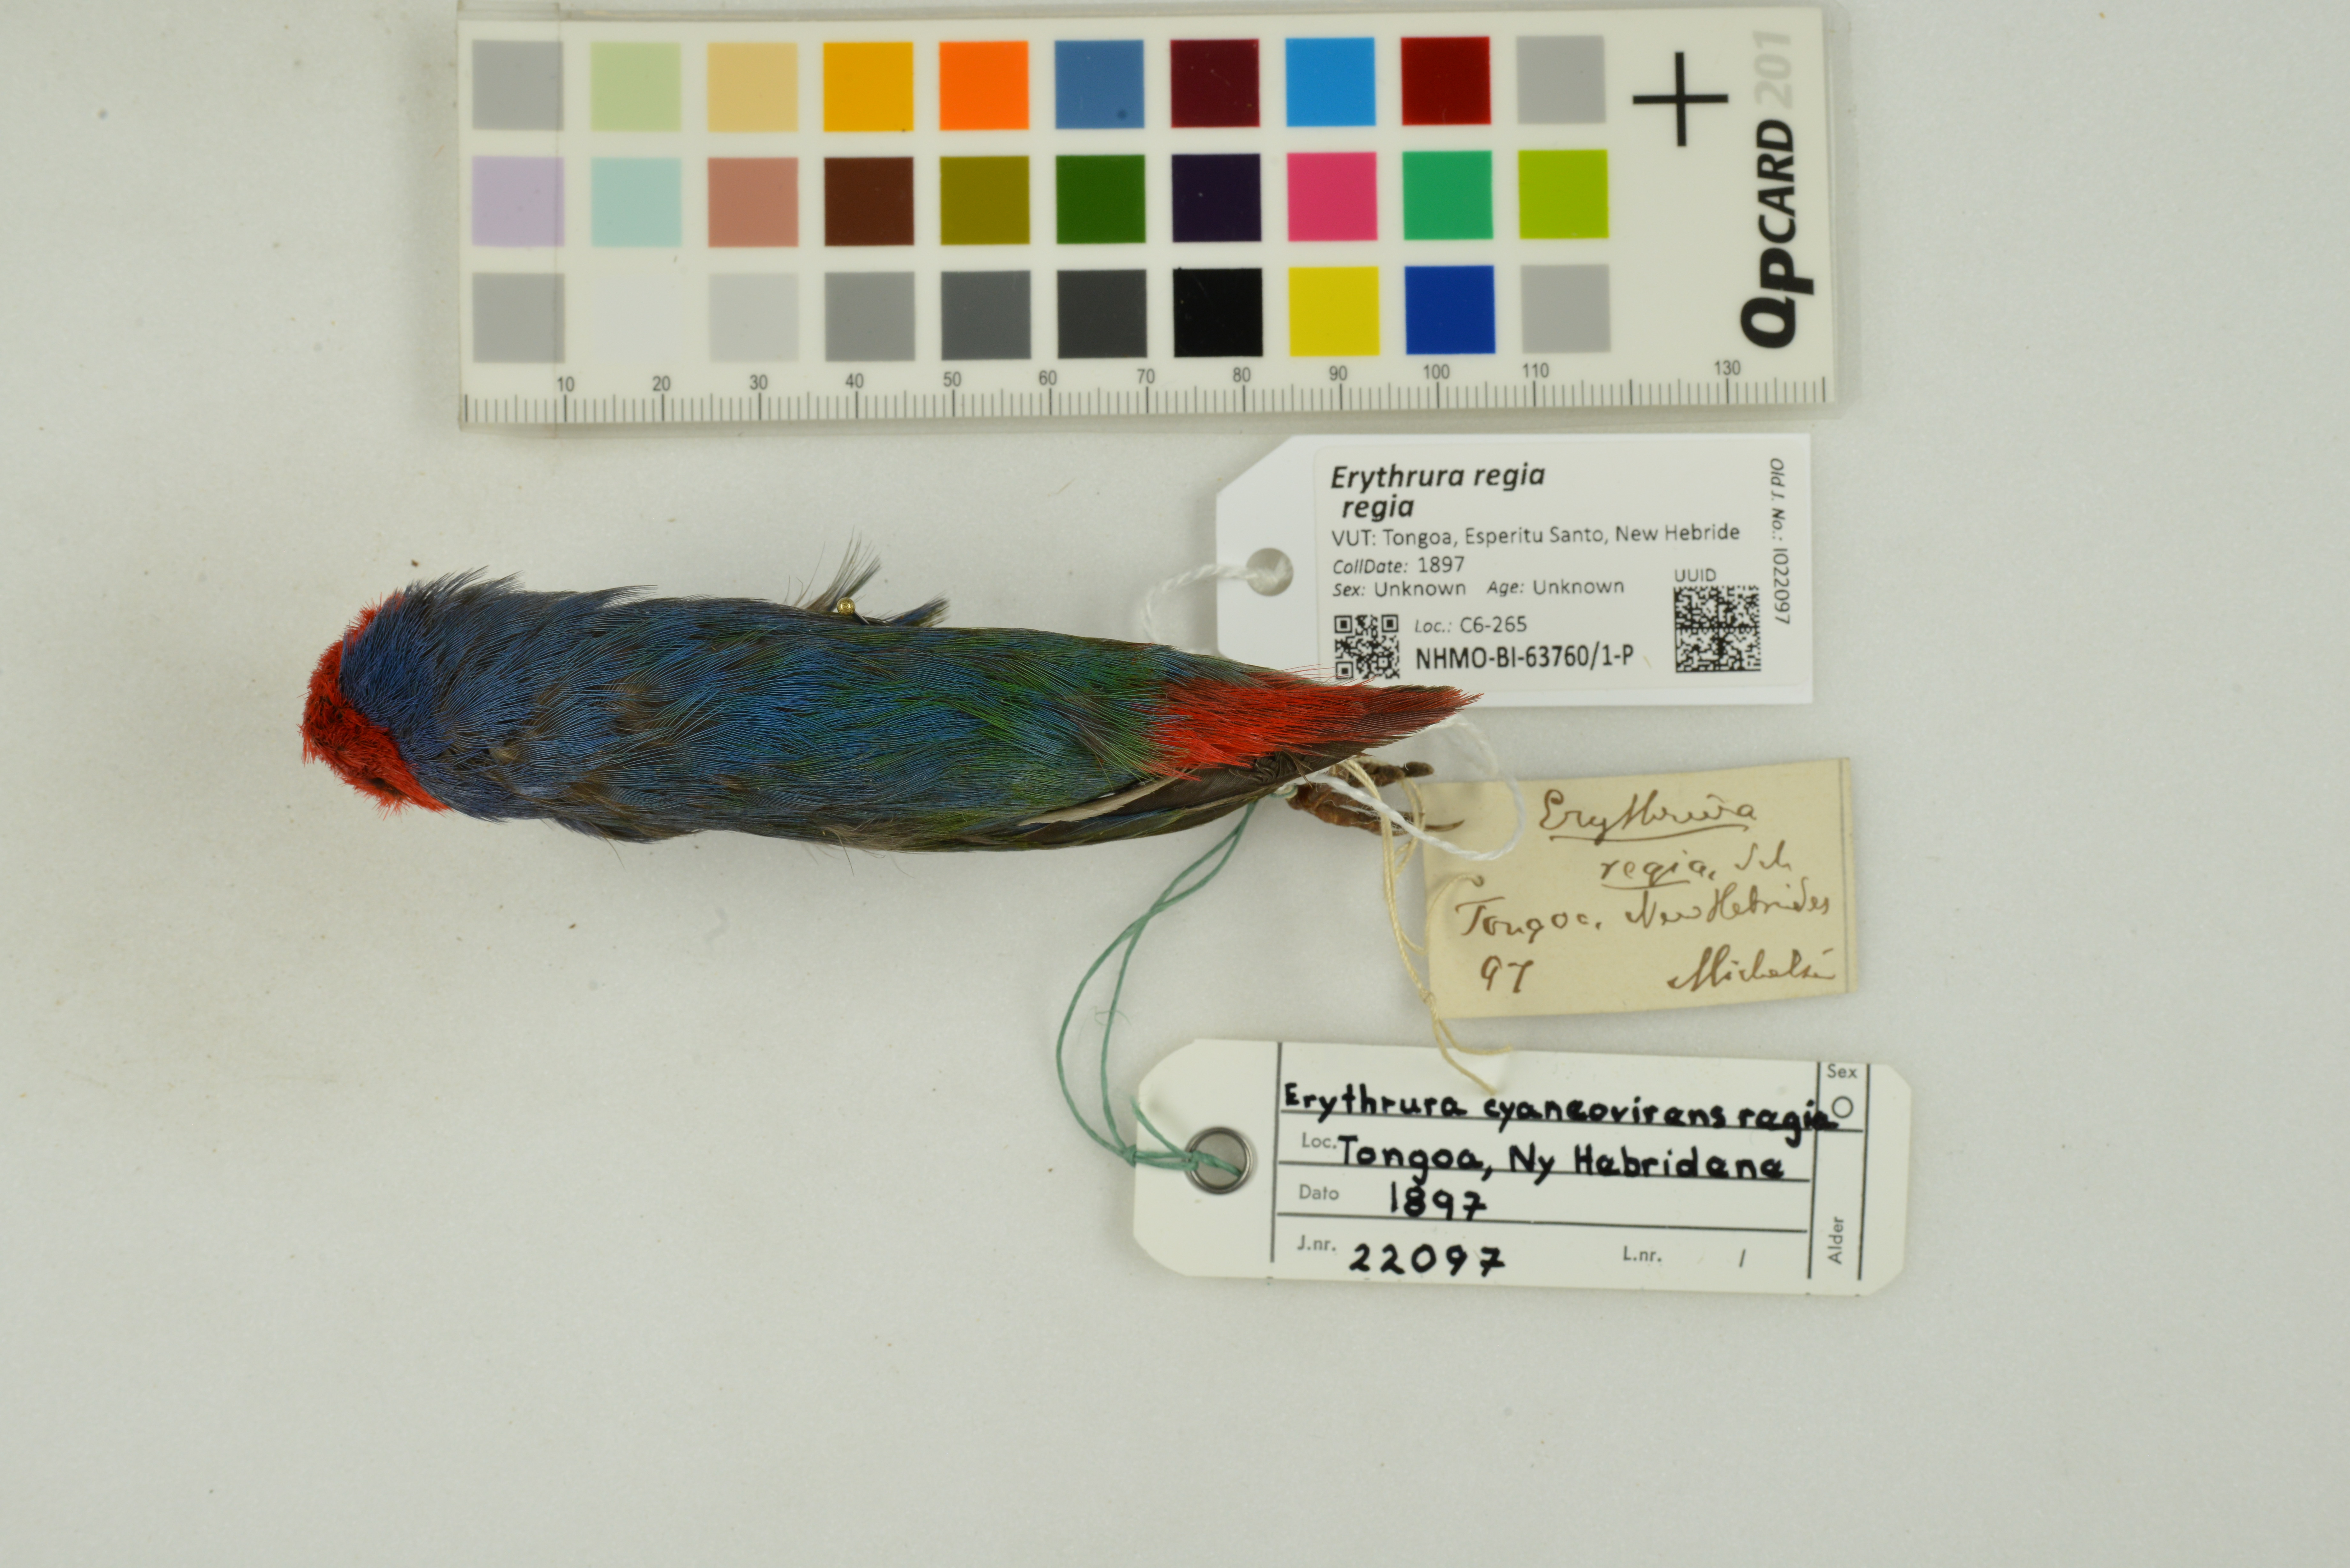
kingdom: Animalia
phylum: Chordata
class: Aves
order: Passeriformes
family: Estrildidae
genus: Erythrura
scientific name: Erythrura regia
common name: Royal parrotfinch
